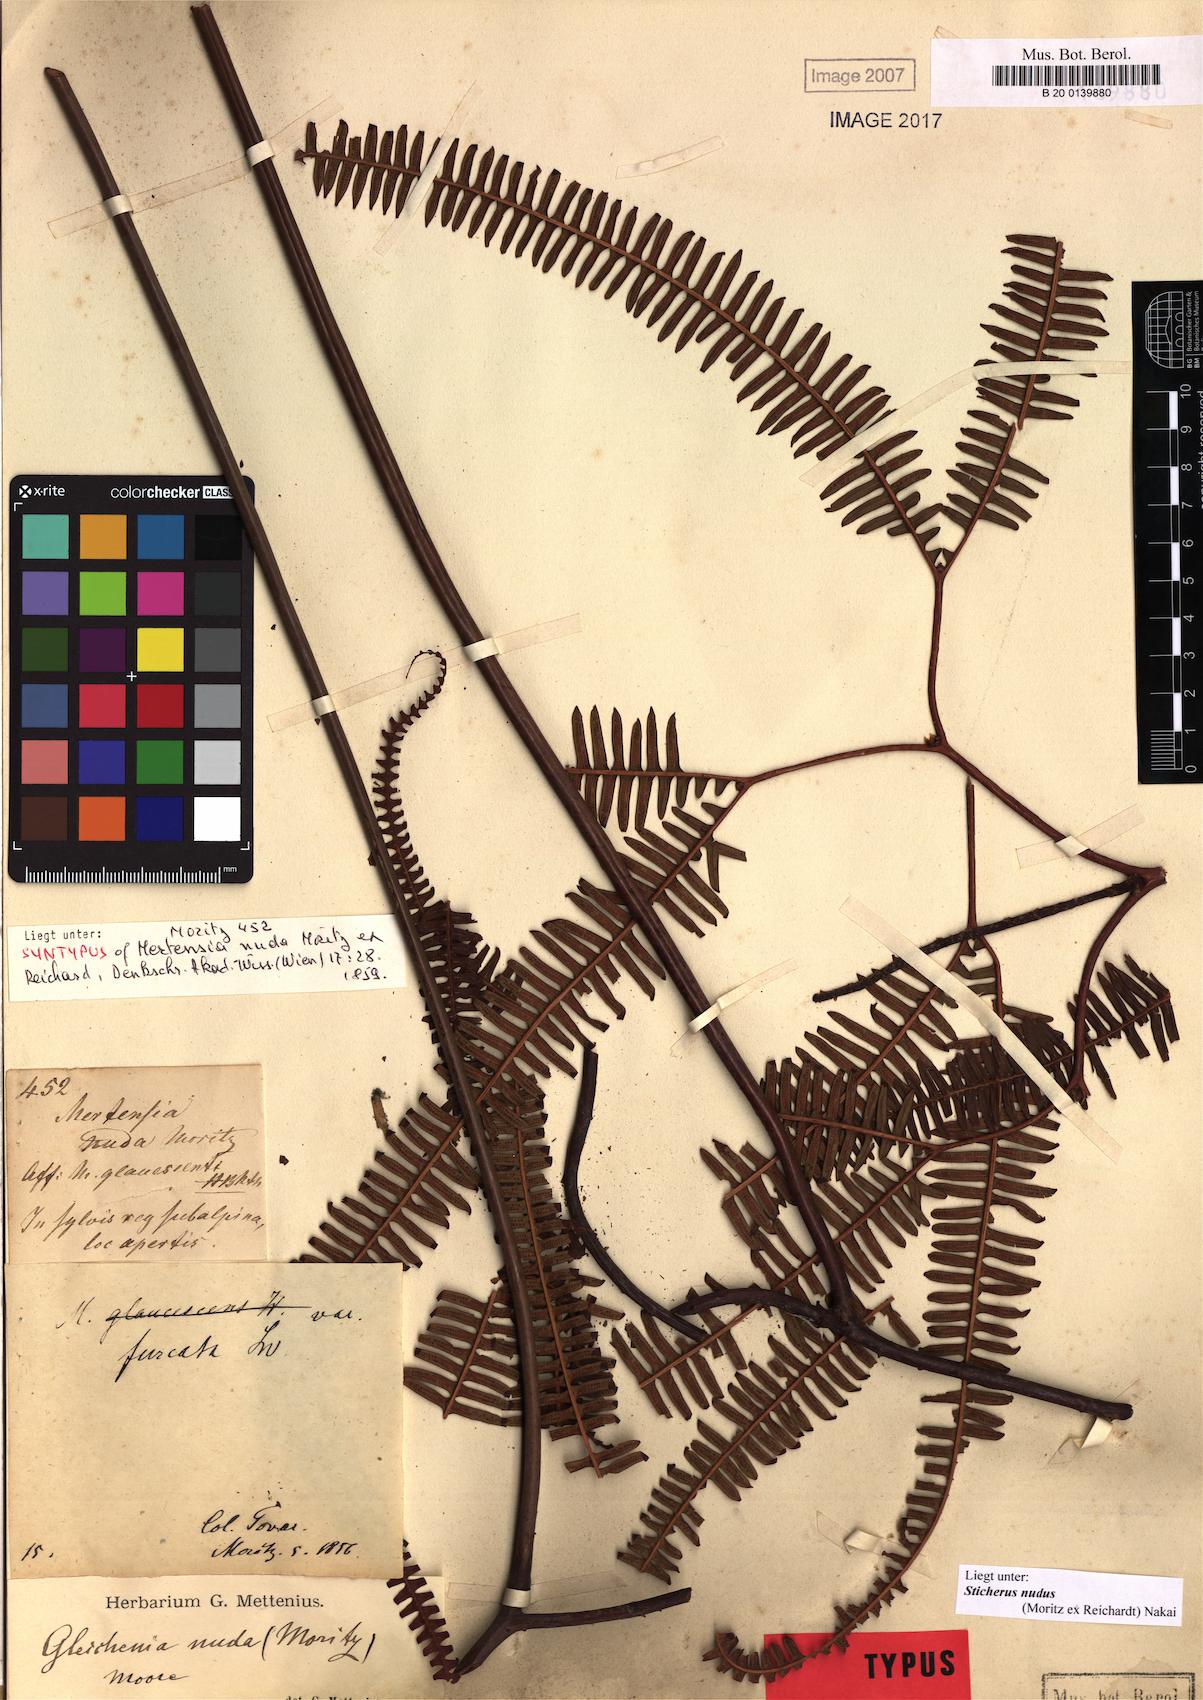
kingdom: Plantae
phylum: Tracheophyta
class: Polypodiopsida
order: Gleicheniales
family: Gleicheniaceae
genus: Sticherus
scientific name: Sticherus nudus
